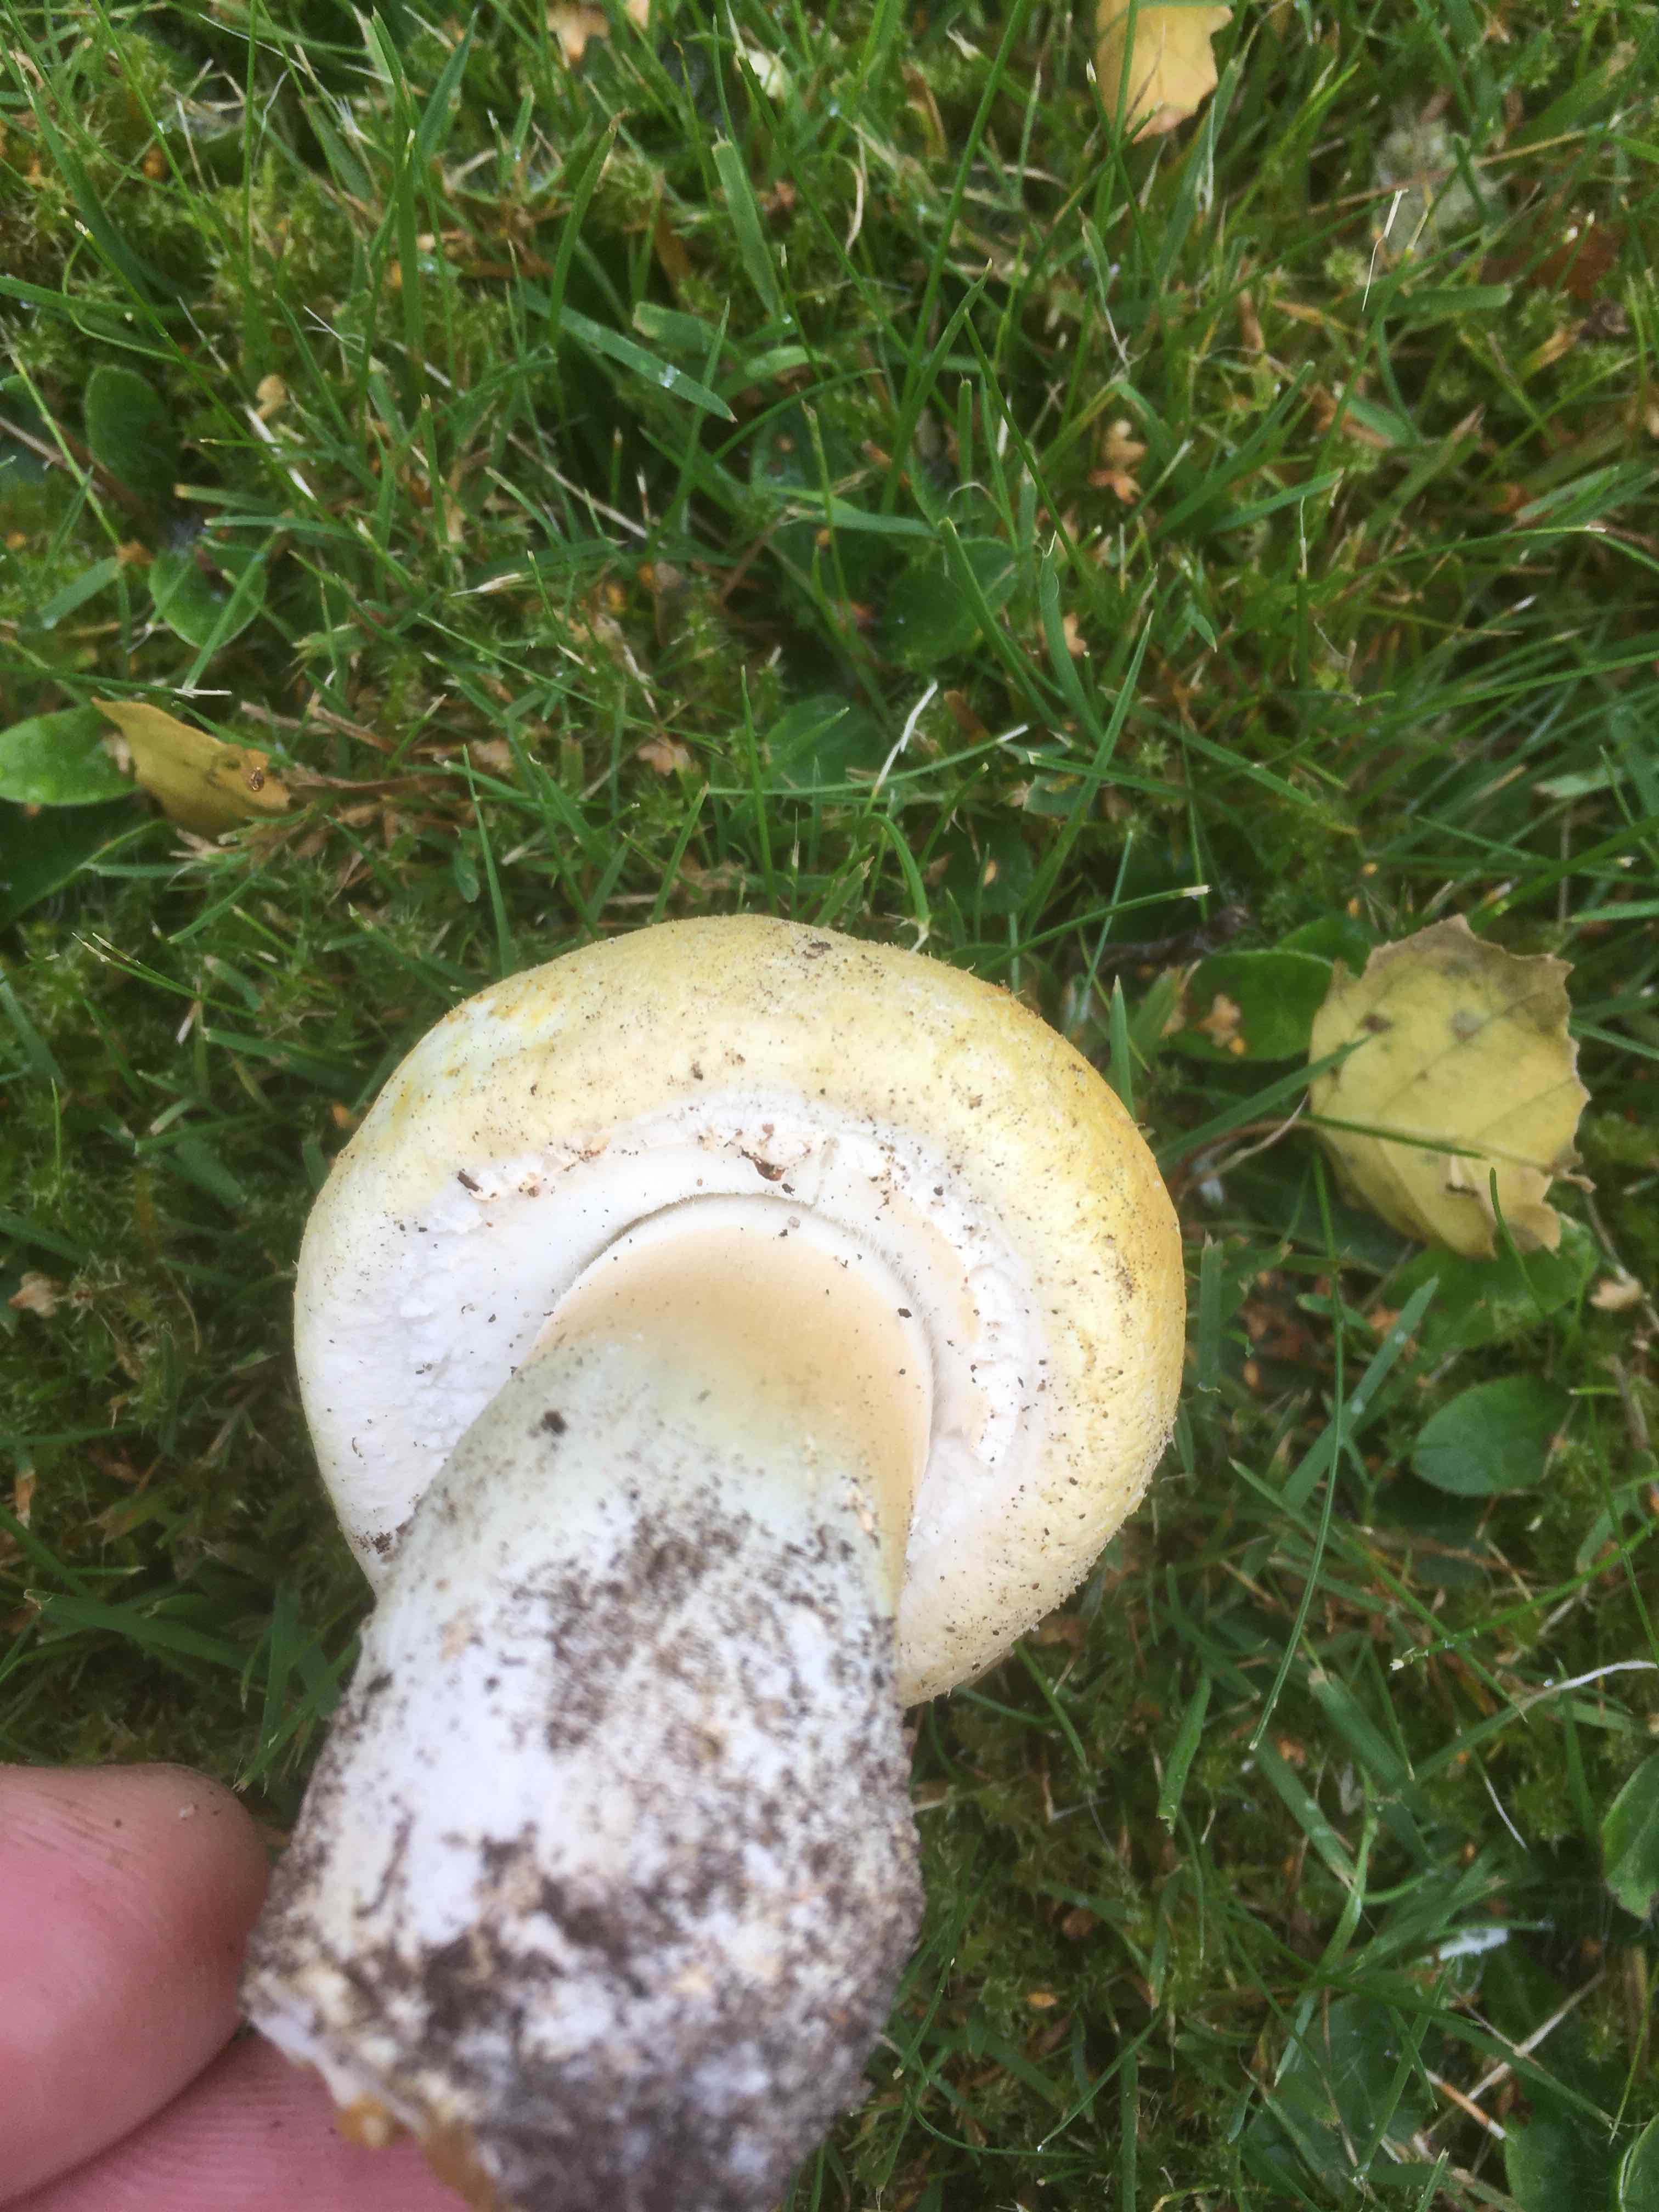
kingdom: Fungi
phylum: Basidiomycota
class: Agaricomycetes
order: Agaricales
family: Agaricaceae
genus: Agaricus
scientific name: Agaricus arvensis
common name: ager-champignon
